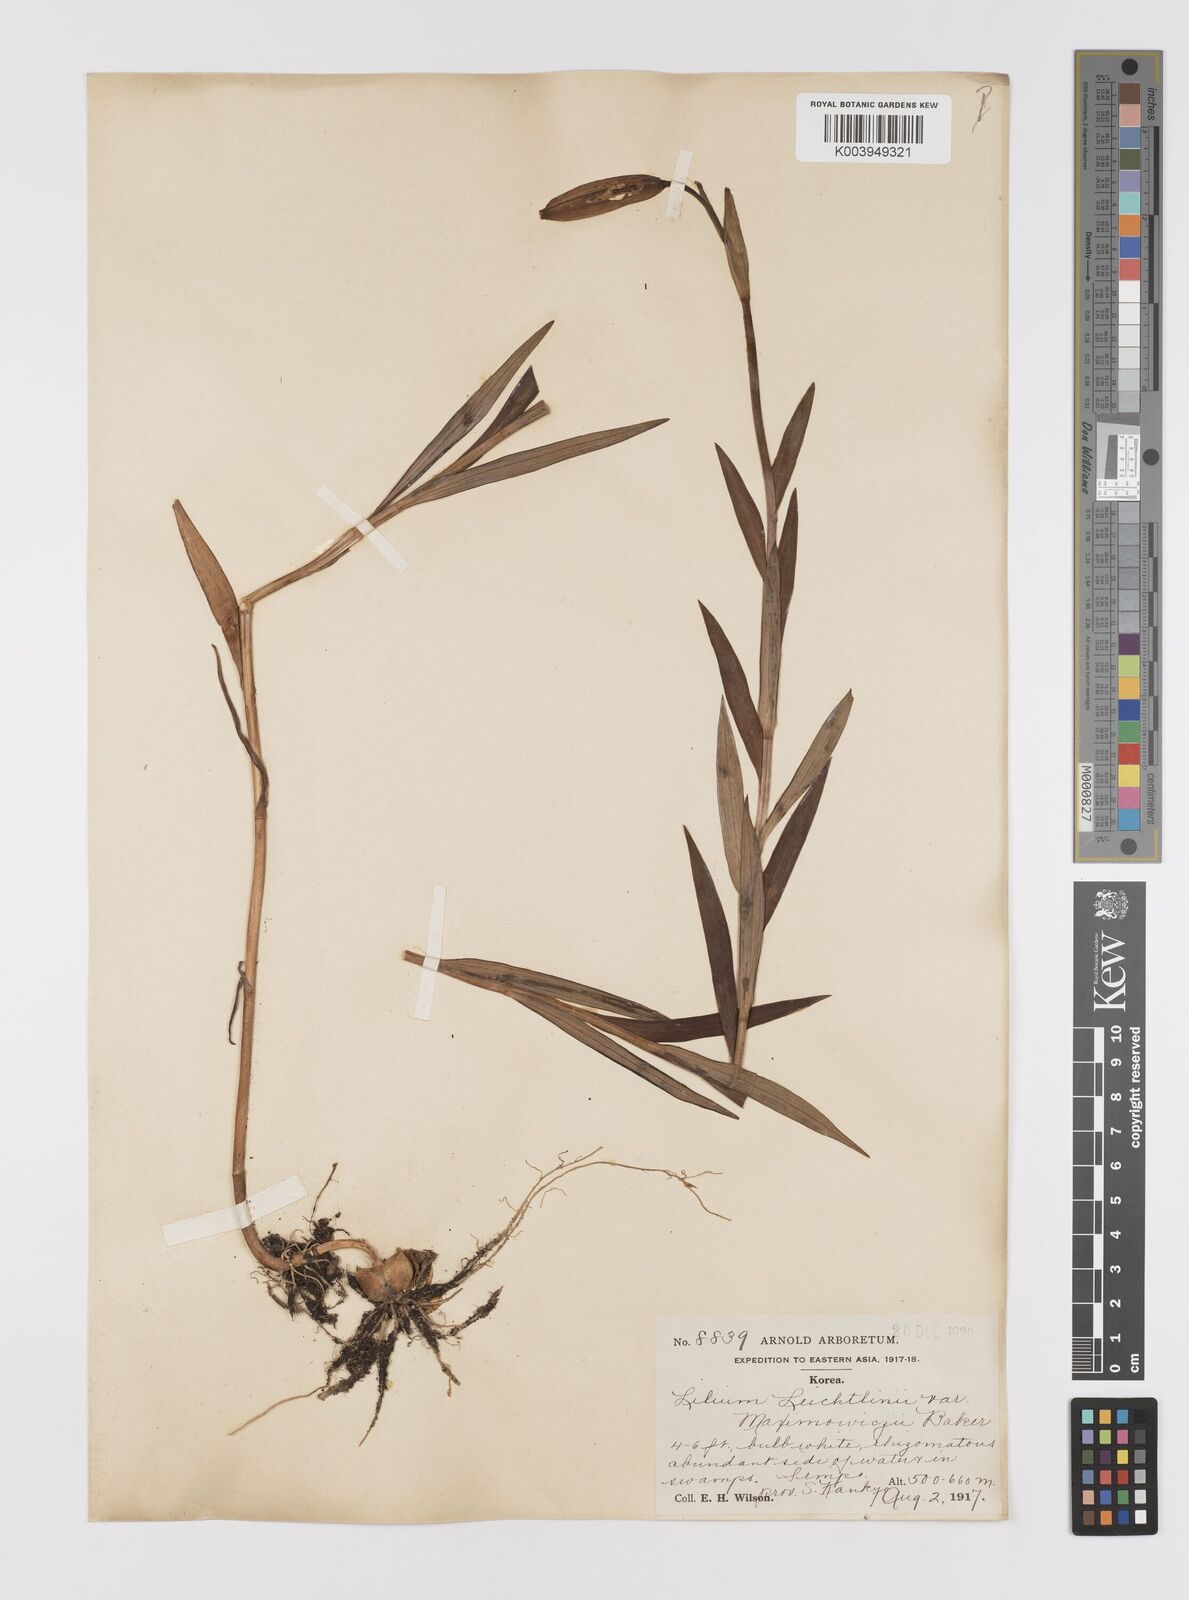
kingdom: Plantae
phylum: Tracheophyta
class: Liliopsida
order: Liliales
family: Liliaceae
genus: Lilium
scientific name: Lilium leichtlinii
